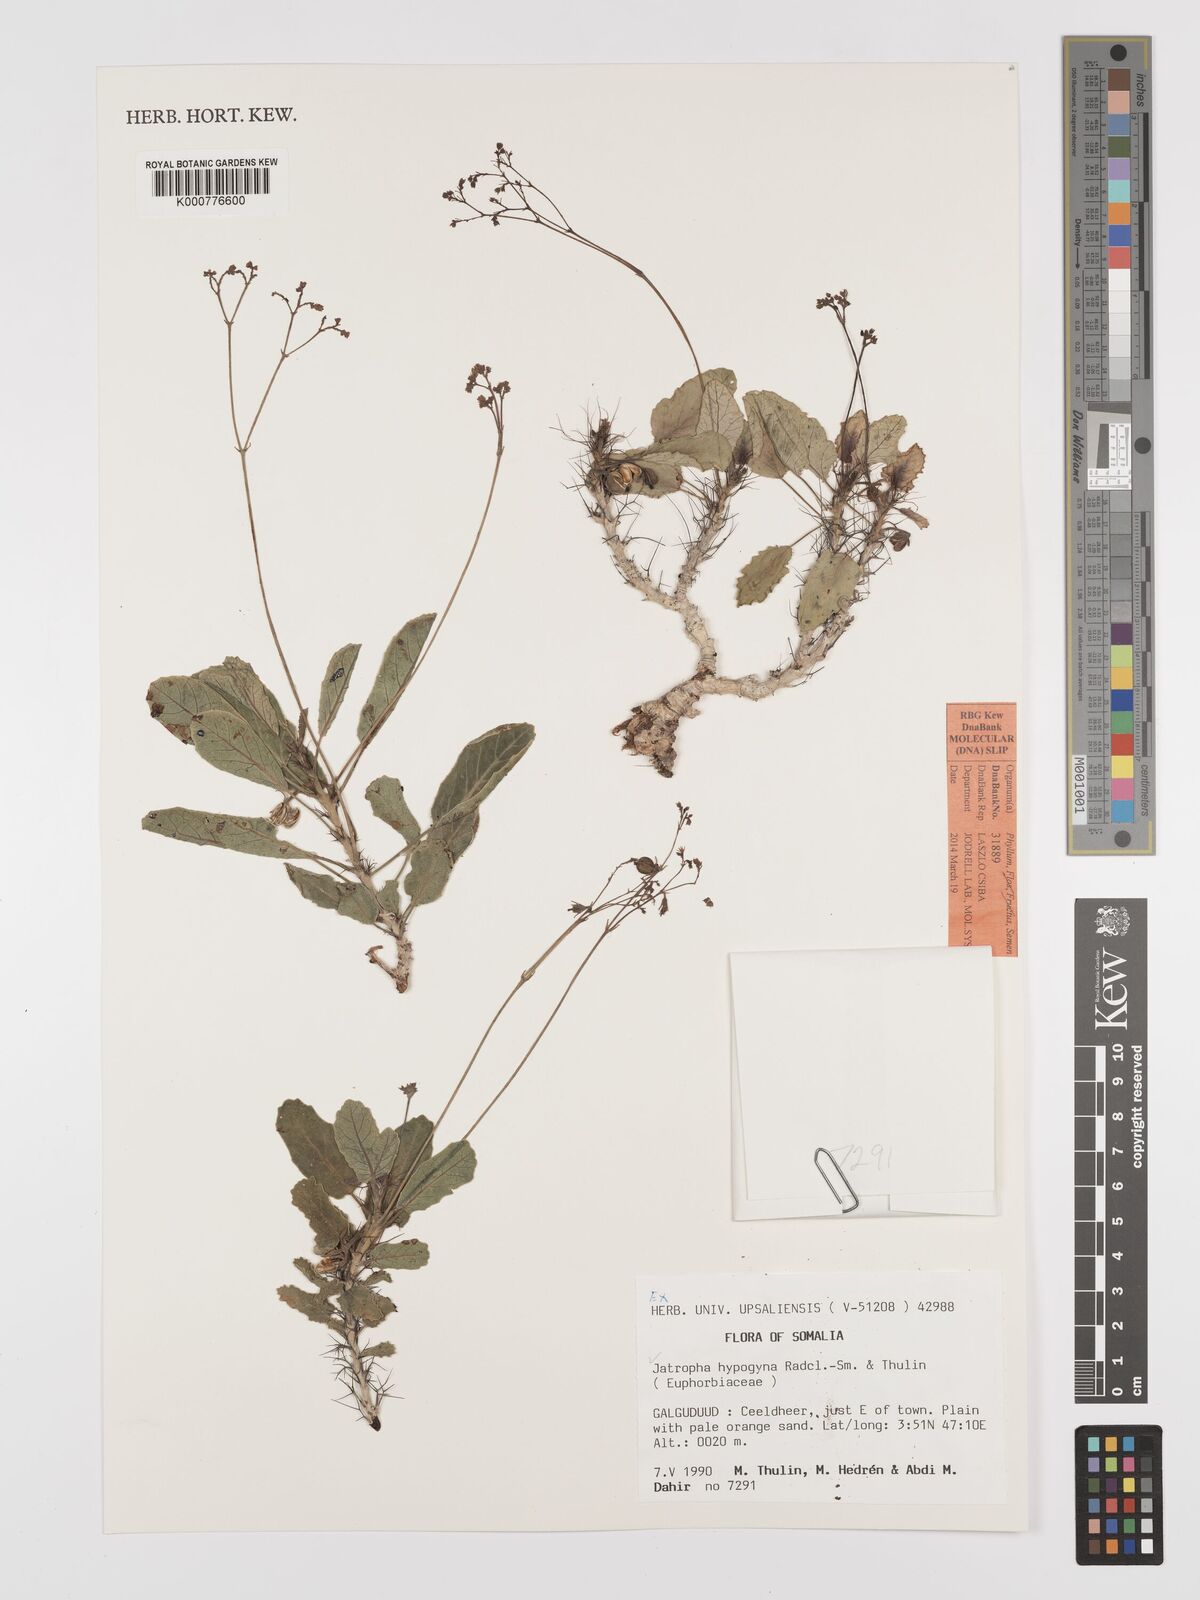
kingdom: Plantae
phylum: Tracheophyta
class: Magnoliopsida
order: Malpighiales
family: Euphorbiaceae
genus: Jatropha
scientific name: Jatropha hypogyna
